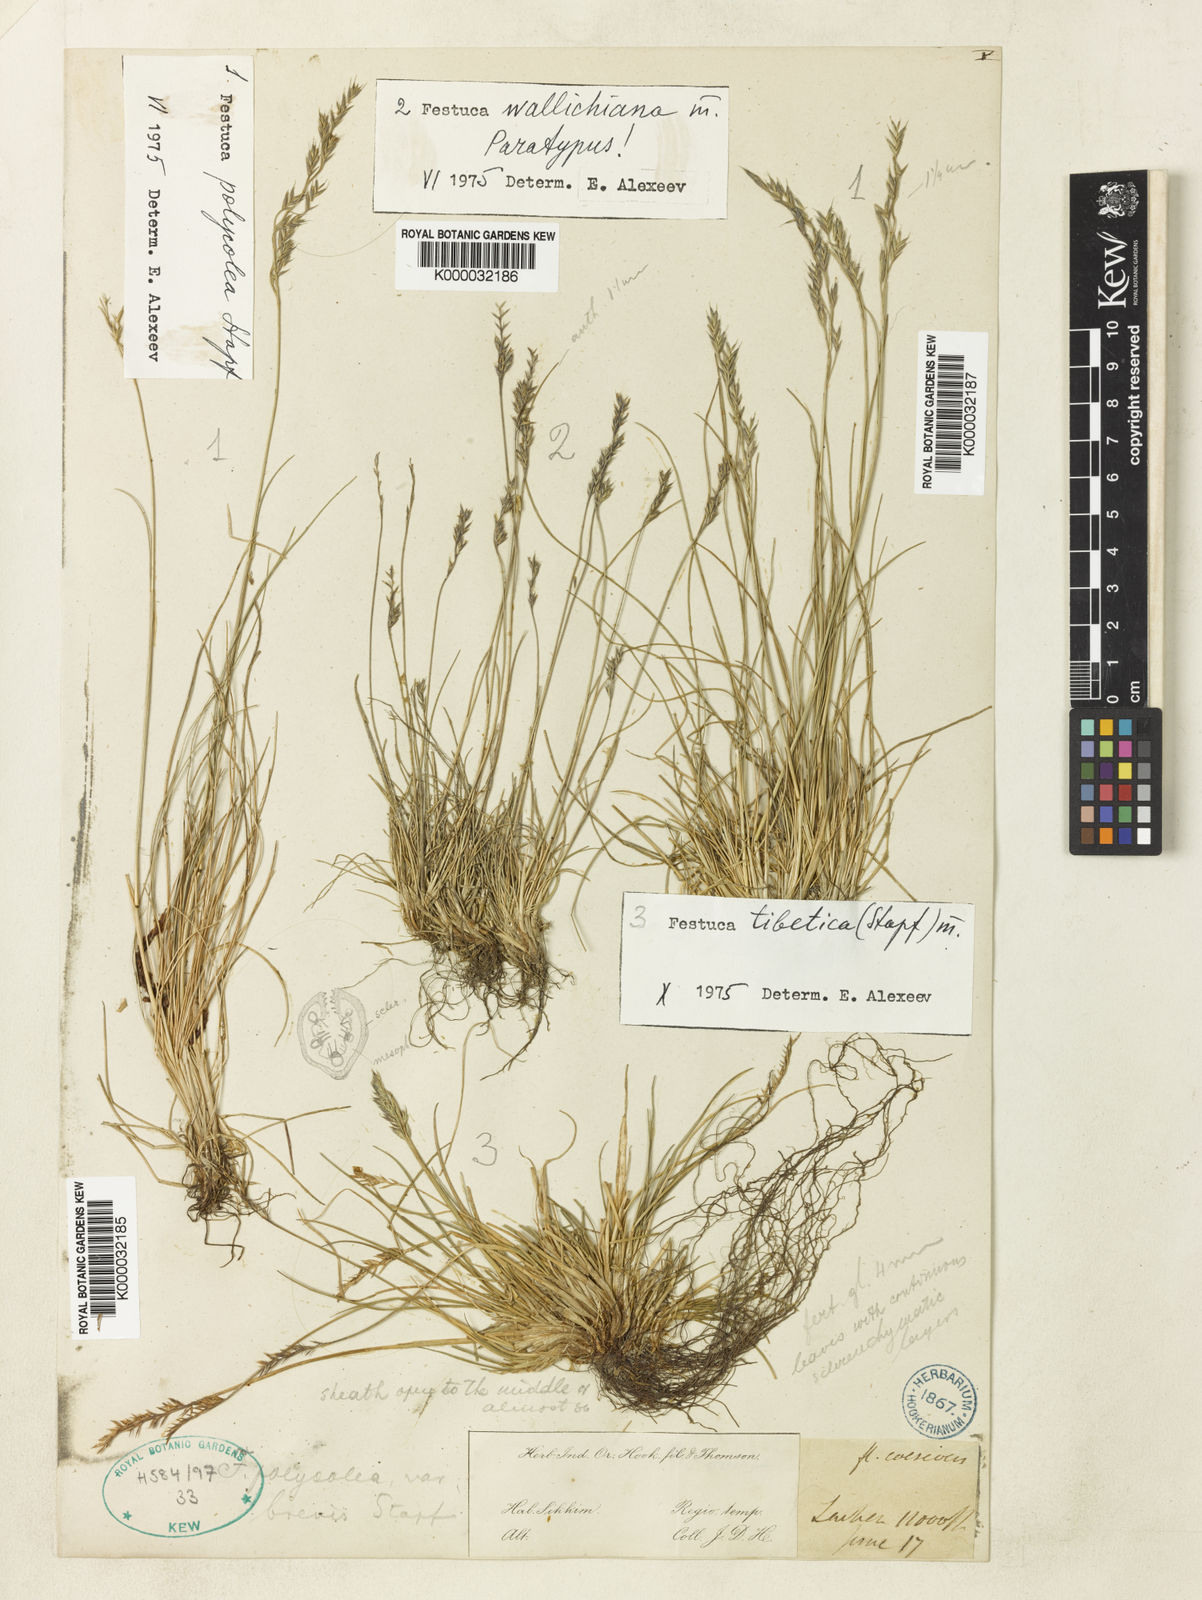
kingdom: Plantae
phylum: Tracheophyta
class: Liliopsida
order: Poales
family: Poaceae
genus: Festuca
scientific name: Festuca polycolea
